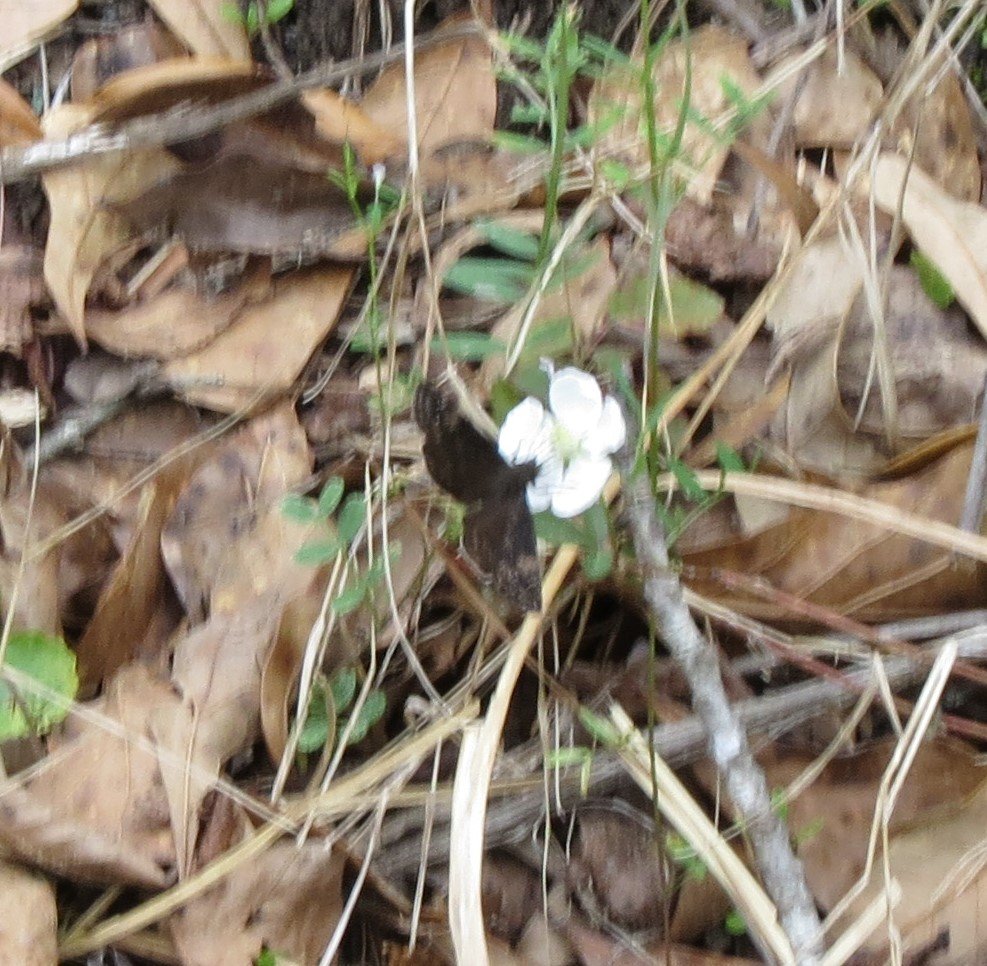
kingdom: Animalia
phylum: Arthropoda
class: Insecta
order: Lepidoptera
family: Hesperiidae
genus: Gesta
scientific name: Gesta
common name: Juvenal's Duskywing
